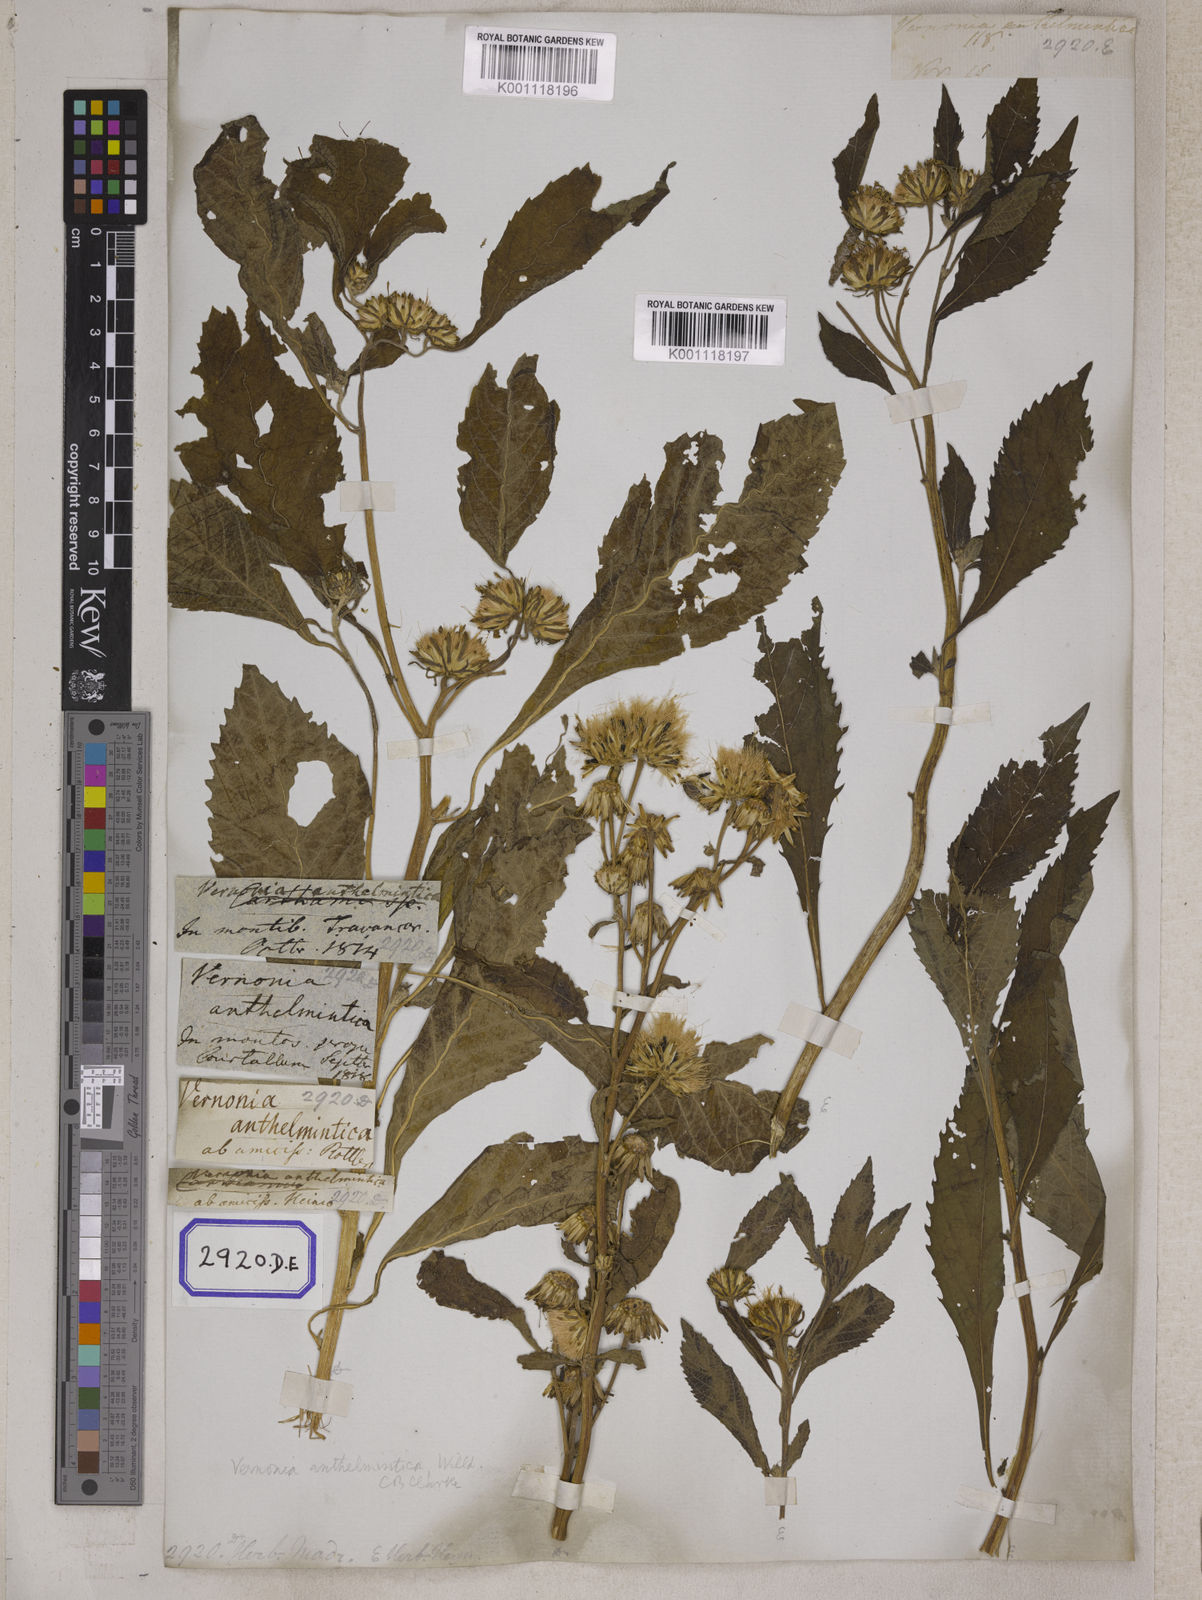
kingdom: Plantae
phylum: Tracheophyta
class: Magnoliopsida
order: Asterales
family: Asteraceae
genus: Baccharoides
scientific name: Baccharoides anthelmintica
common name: Kinka-oil
